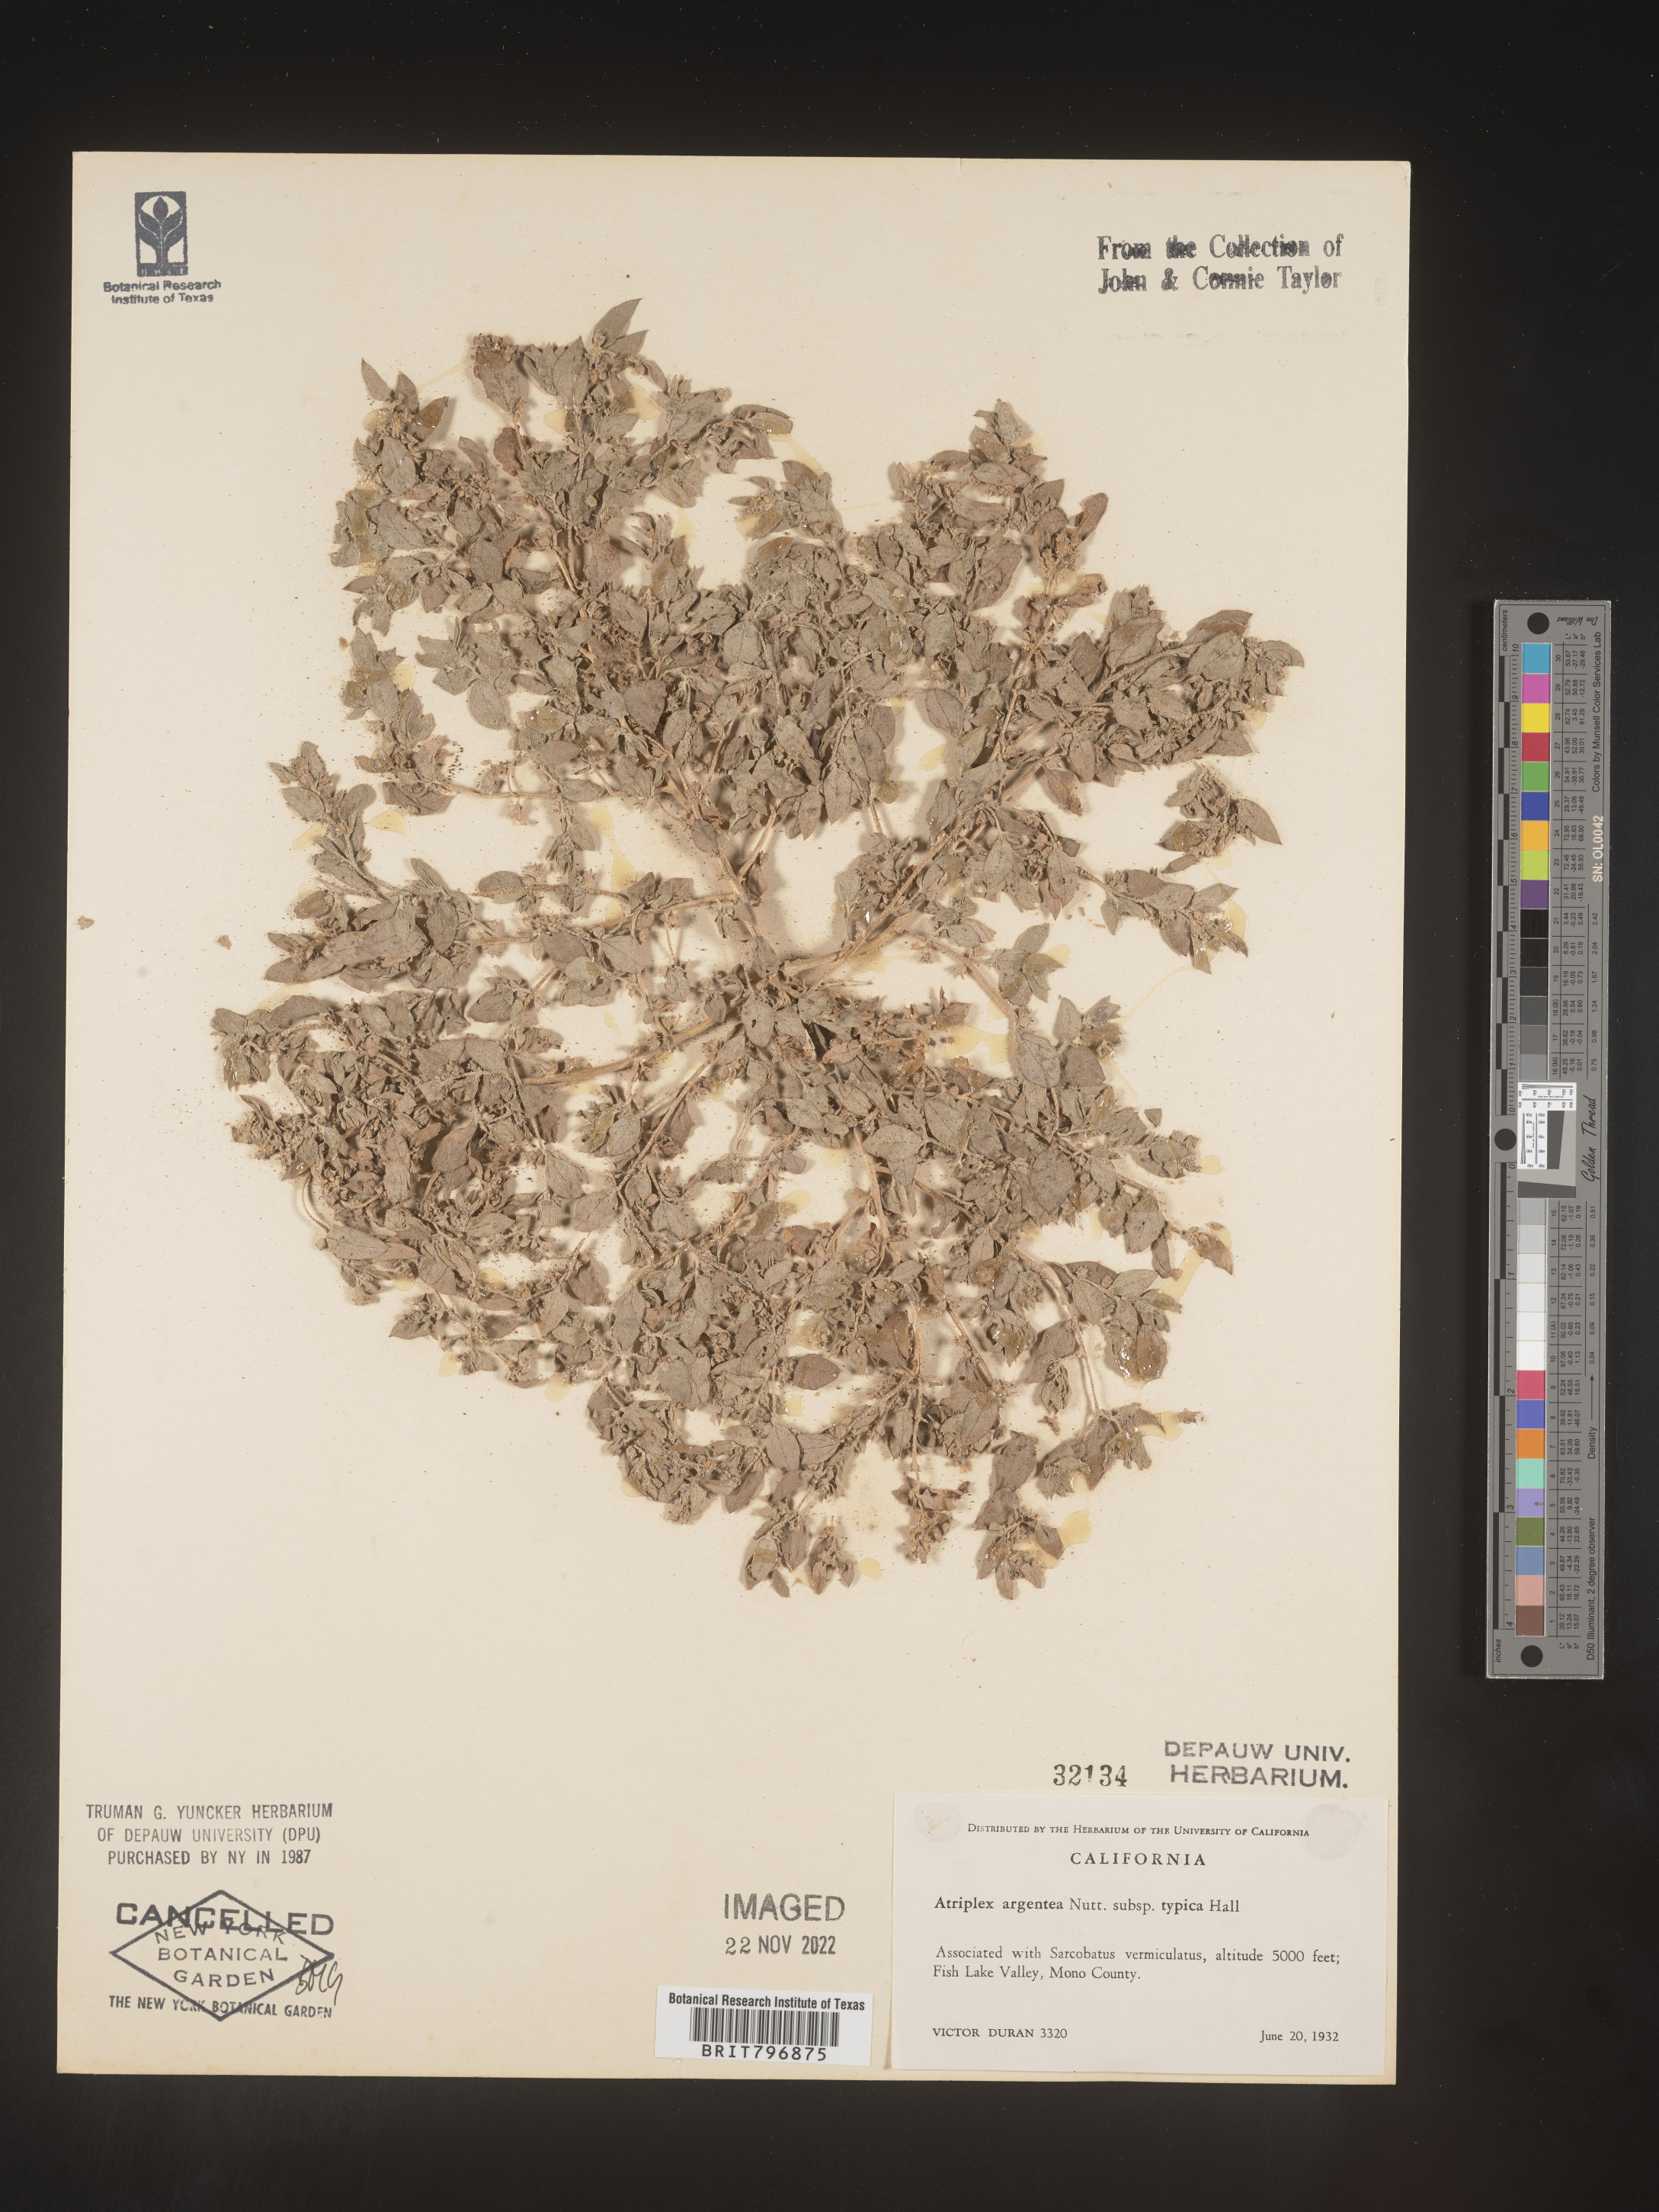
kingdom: Plantae
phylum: Tracheophyta
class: Magnoliopsida
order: Caryophyllales
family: Amaranthaceae
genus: Atriplex
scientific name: Atriplex argentea
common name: Silverscale
